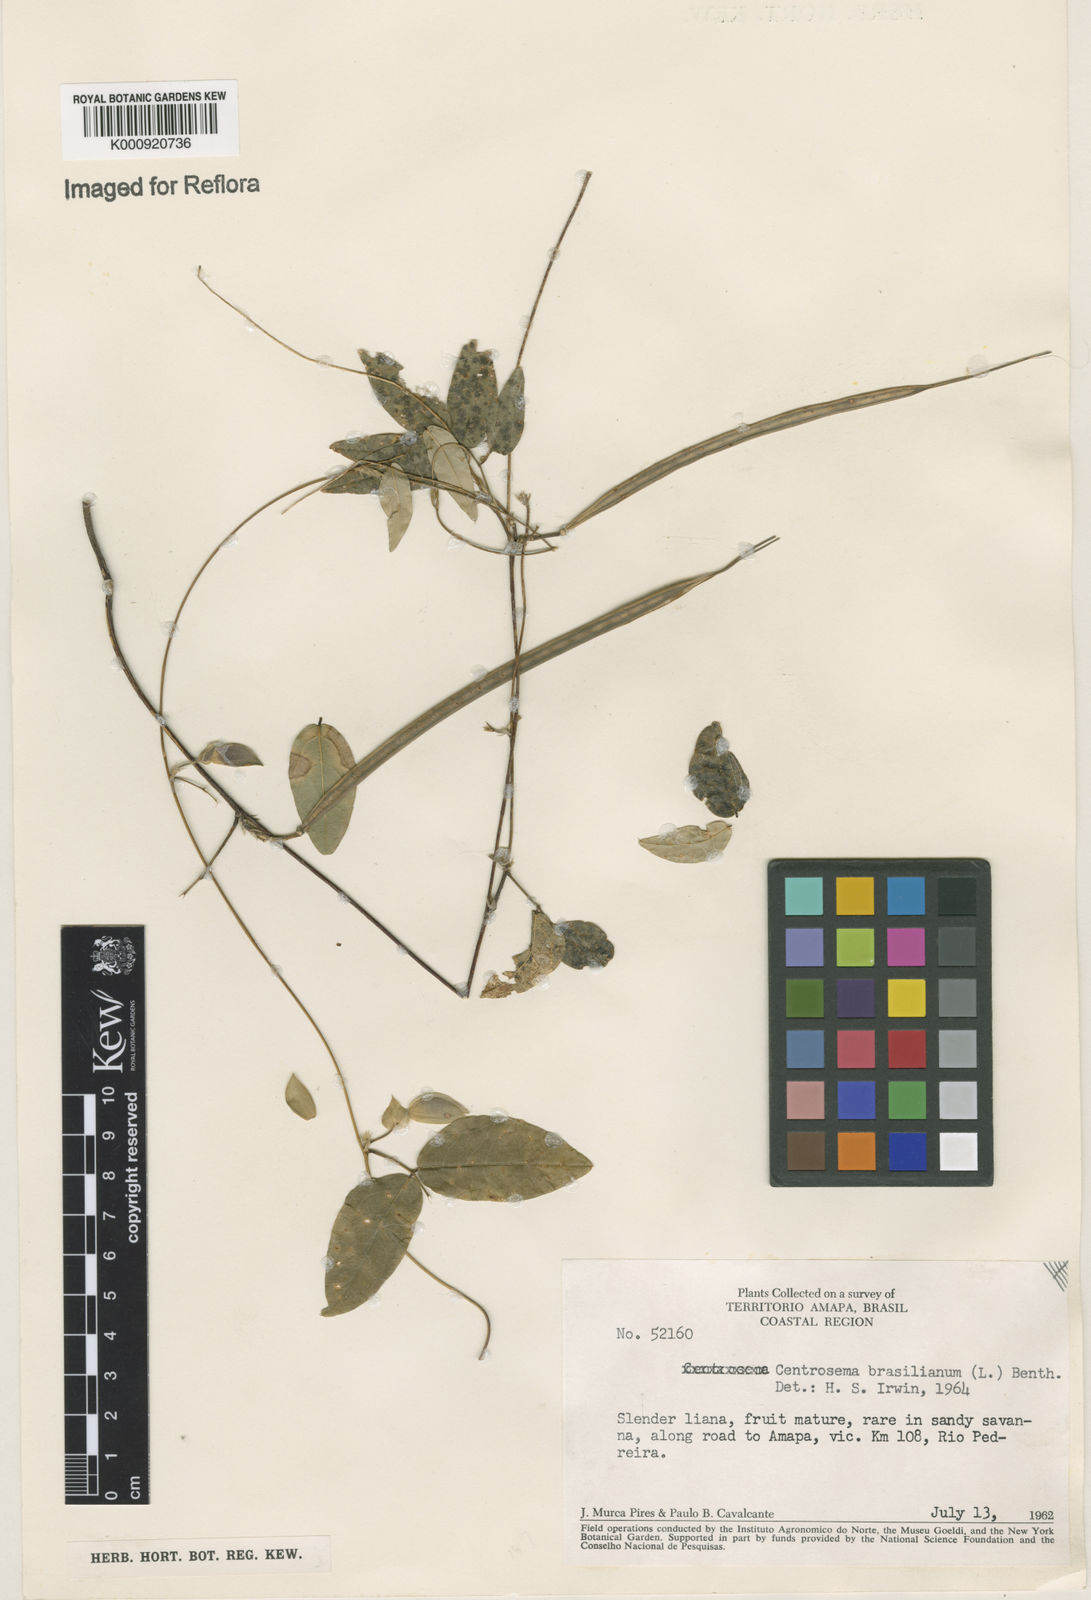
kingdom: Plantae
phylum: Tracheophyta
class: Magnoliopsida
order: Fabales
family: Fabaceae
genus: Centrosema
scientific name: Centrosema brasilianum
